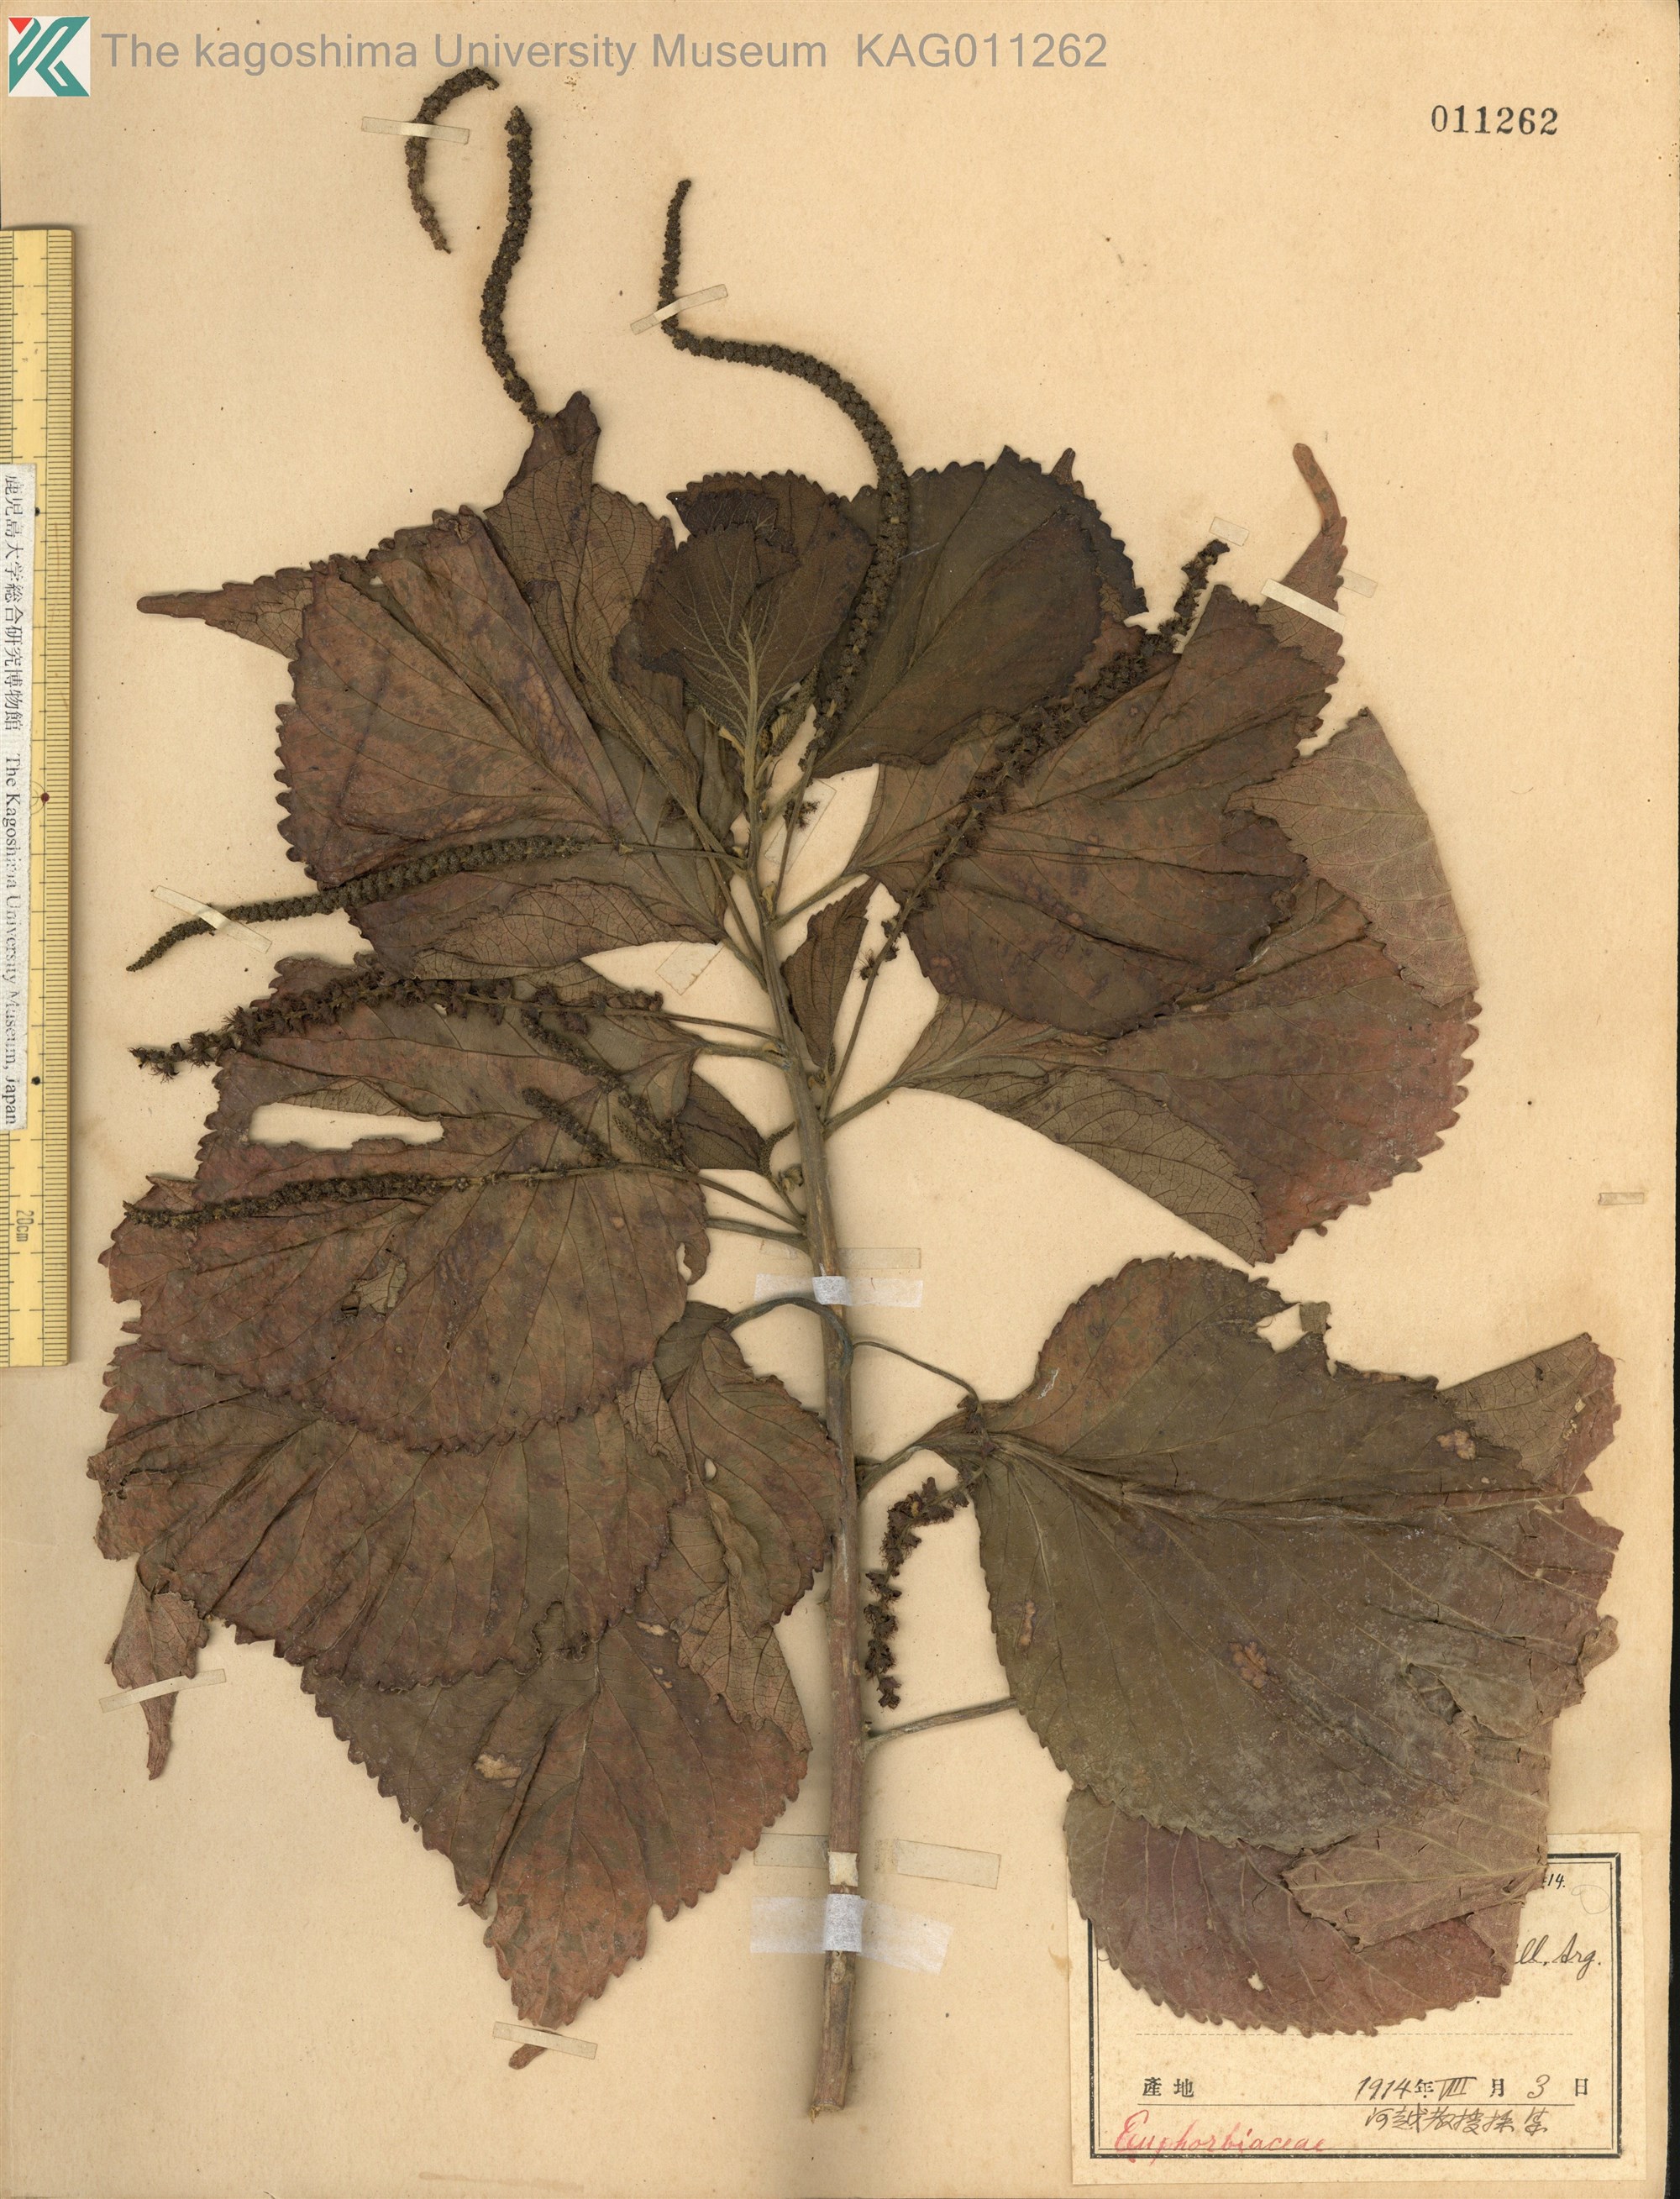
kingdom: Plantae
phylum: Tracheophyta
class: Magnoliopsida
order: Malpighiales
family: Euphorbiaceae
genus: Acalypha
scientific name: Acalypha wilkesiana
